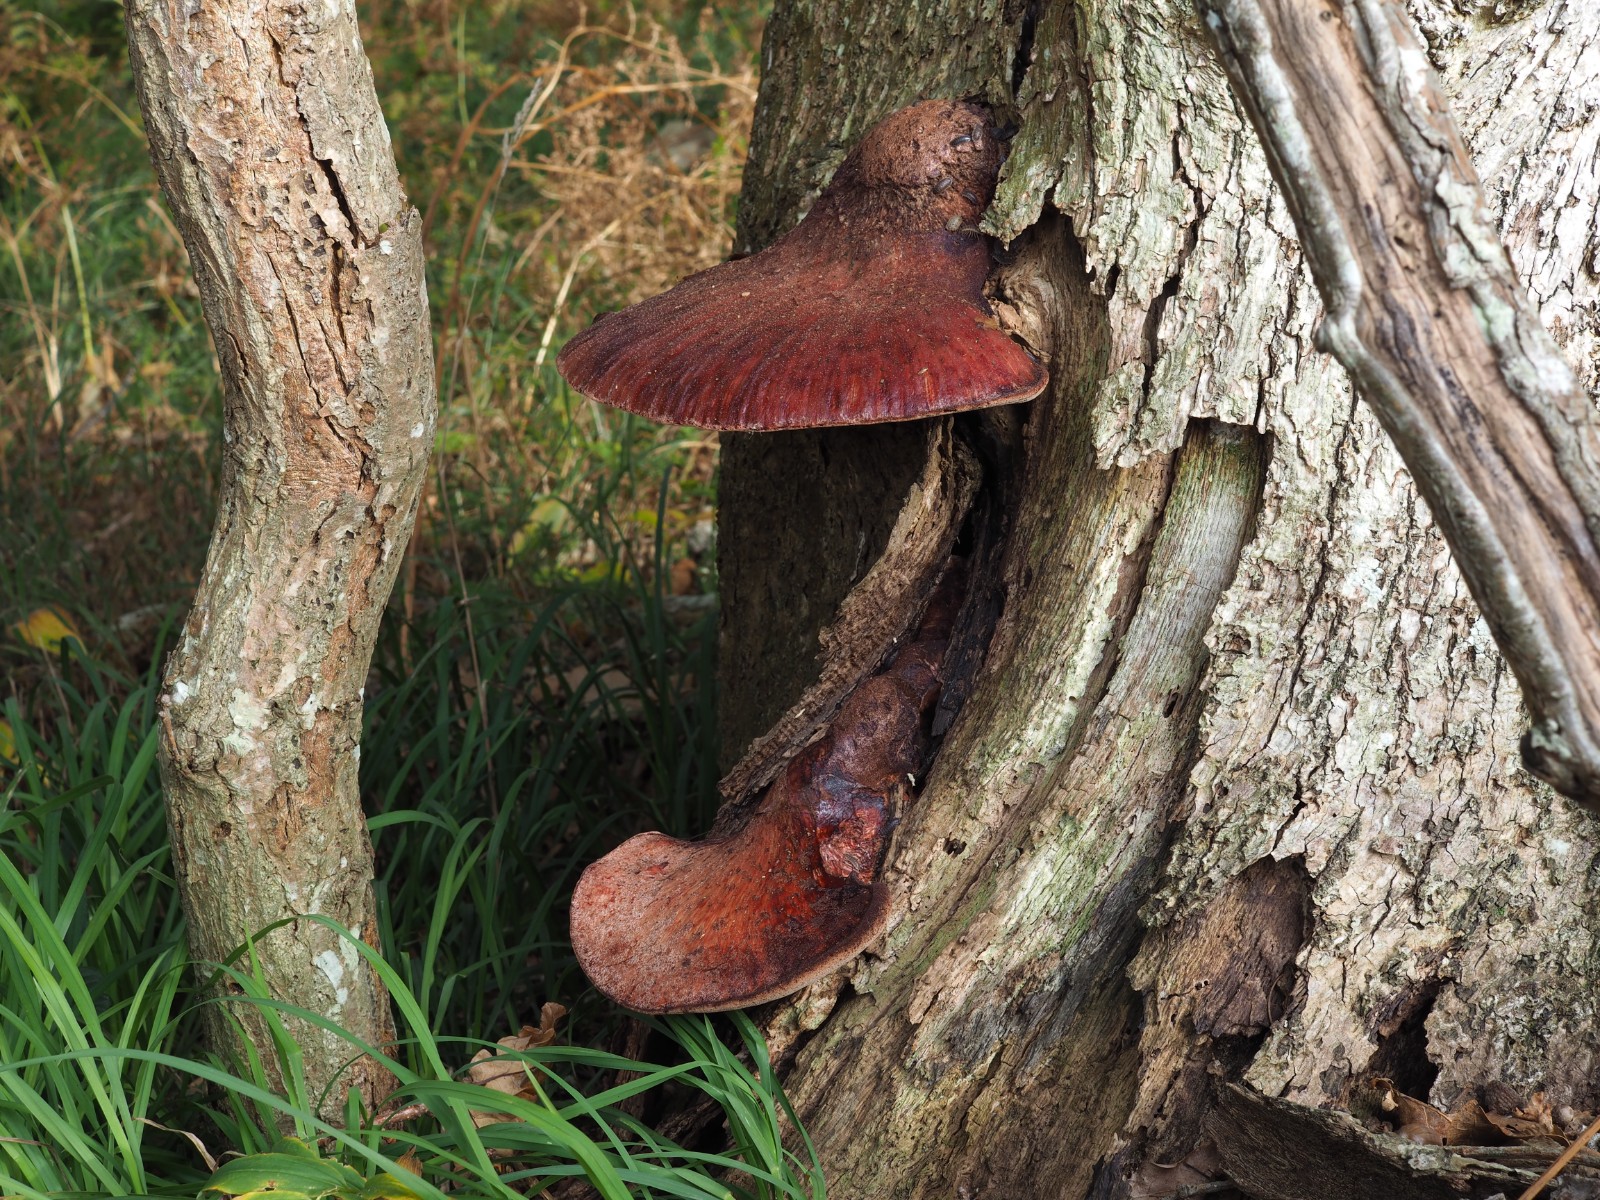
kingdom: Fungi
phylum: Basidiomycota
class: Agaricomycetes
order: Agaricales
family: Fistulinaceae
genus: Fistulina
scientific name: Fistulina hepatica
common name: oksetunge
